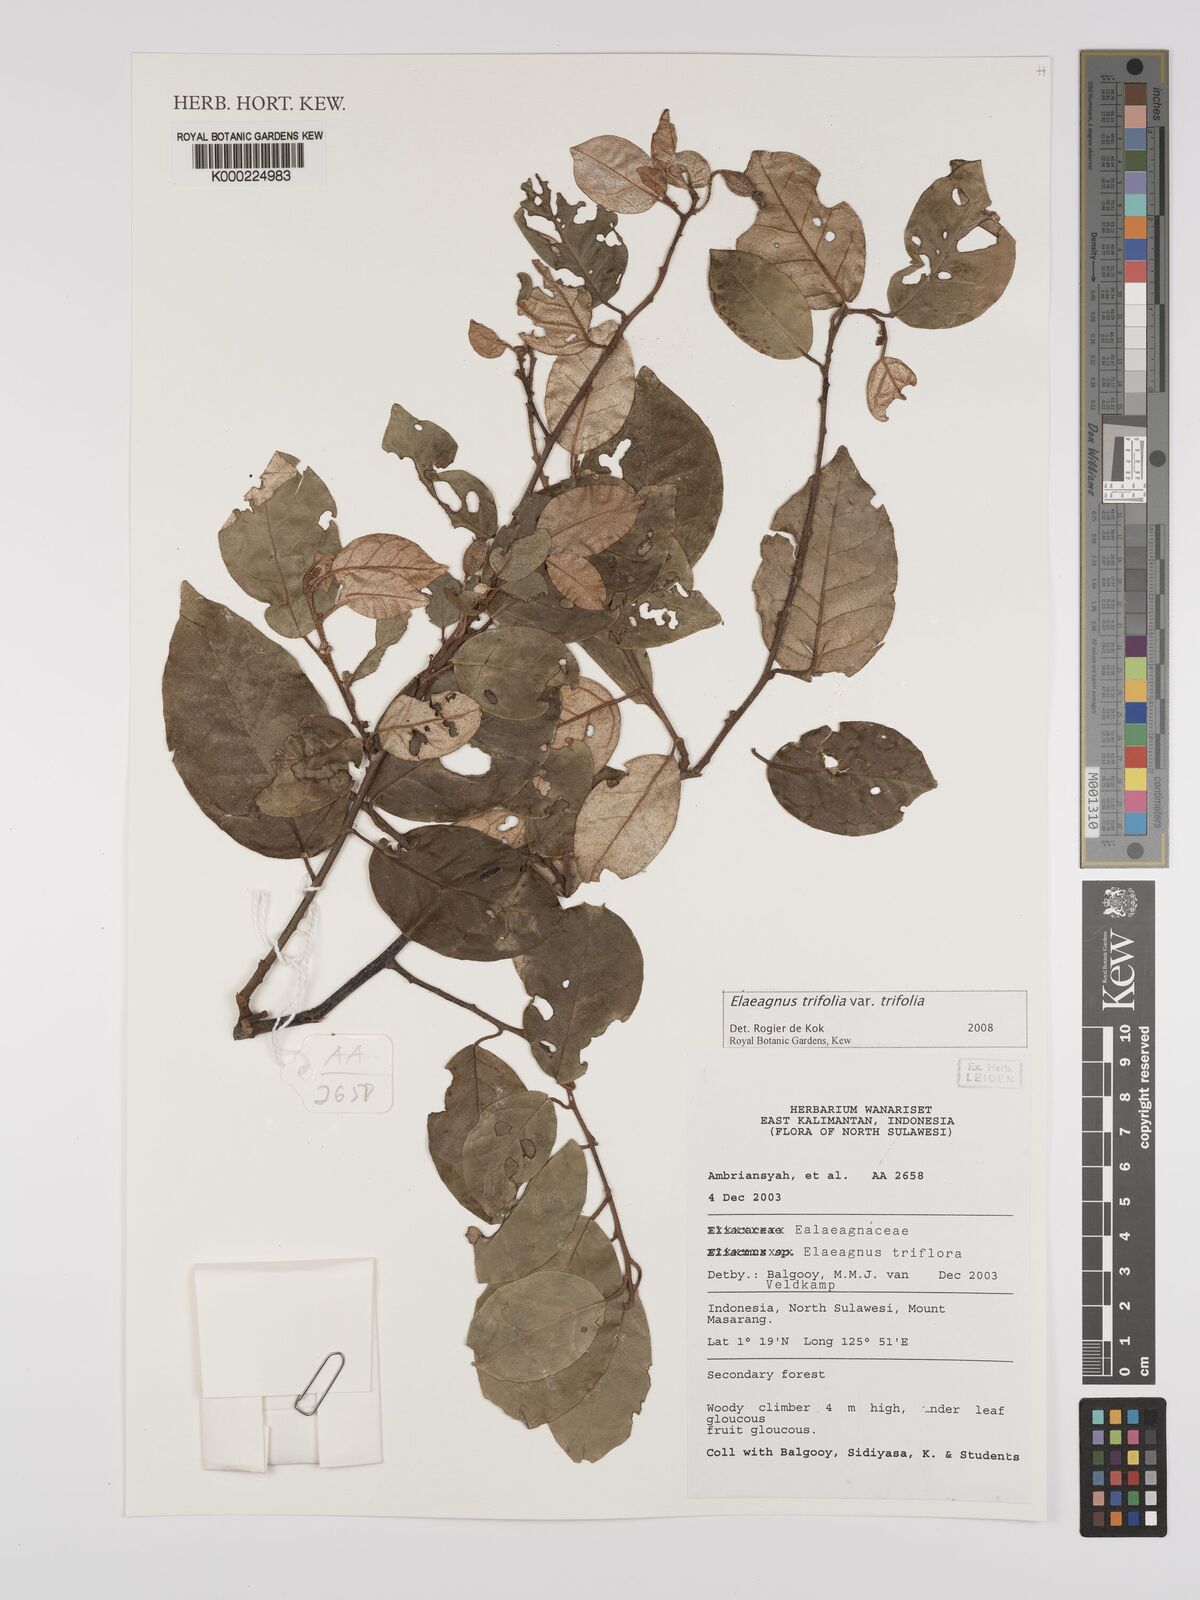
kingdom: Plantae
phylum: Tracheophyta
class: Magnoliopsida
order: Rosales
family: Elaeagnaceae
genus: Elaeagnus
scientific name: Elaeagnus
